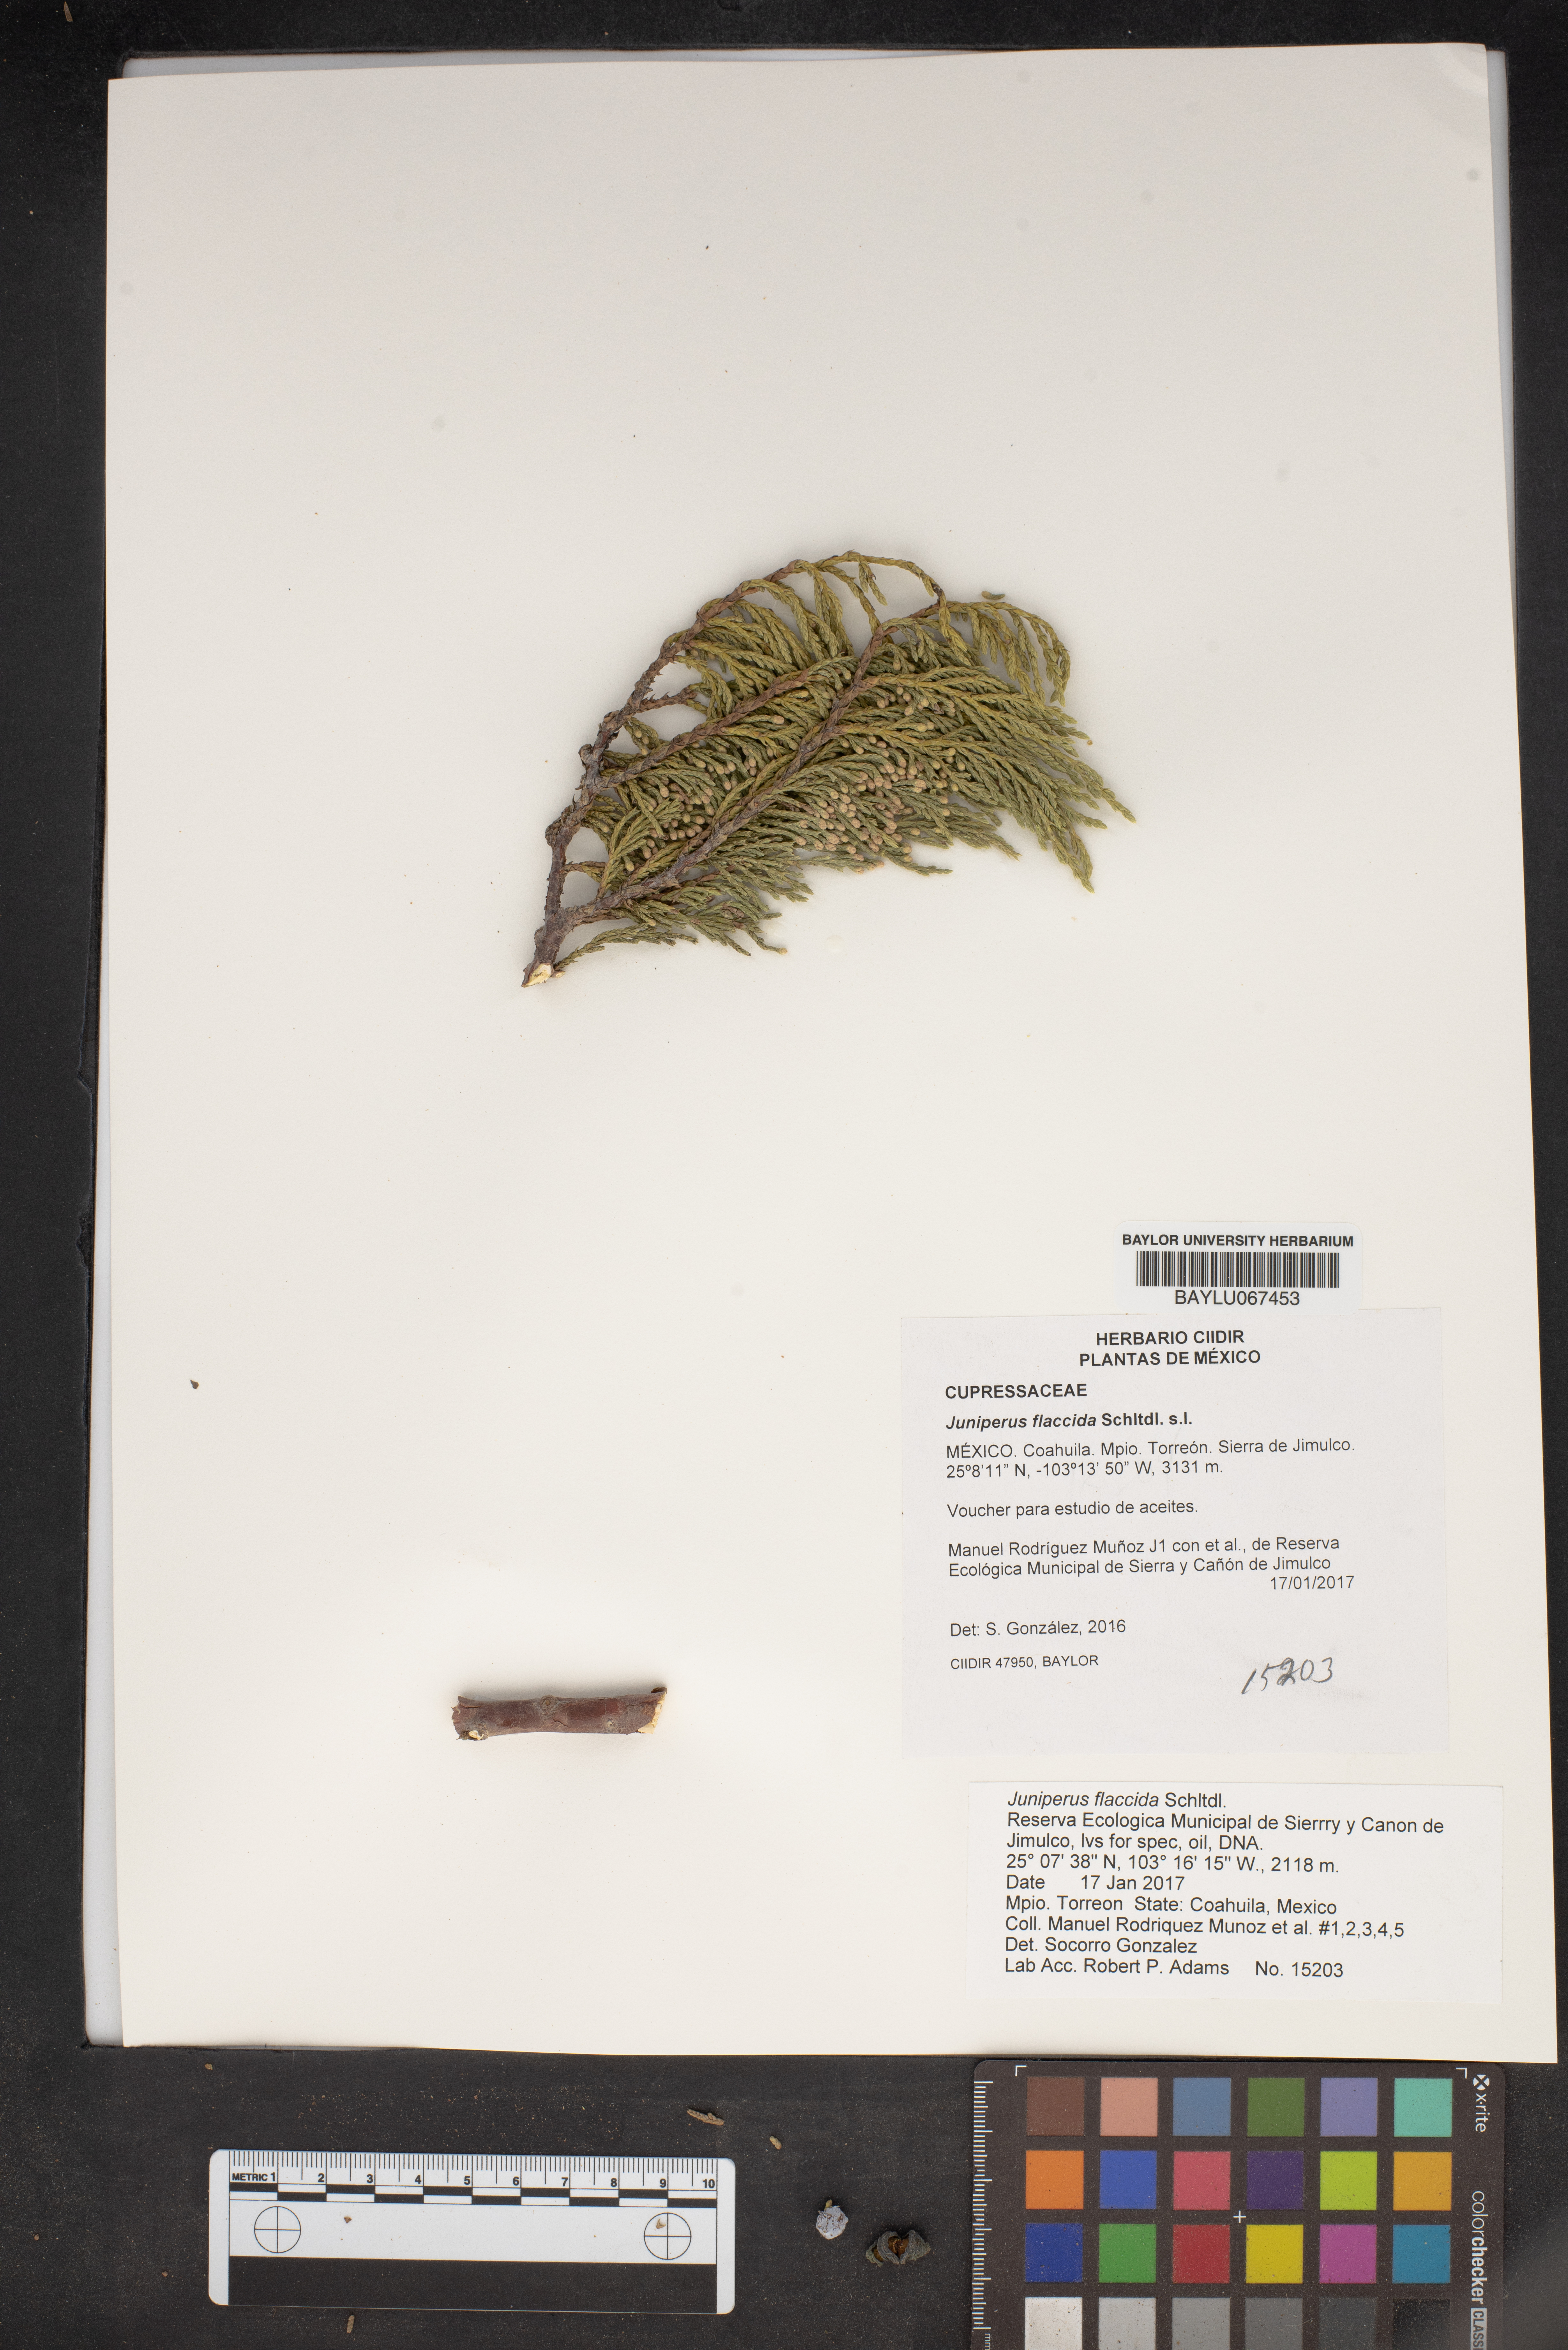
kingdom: Plantae
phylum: Tracheophyta
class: Pinopsida
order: Pinales
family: Cupressaceae
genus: Juniperus
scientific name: Juniperus flaccida
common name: Drooping juniper
